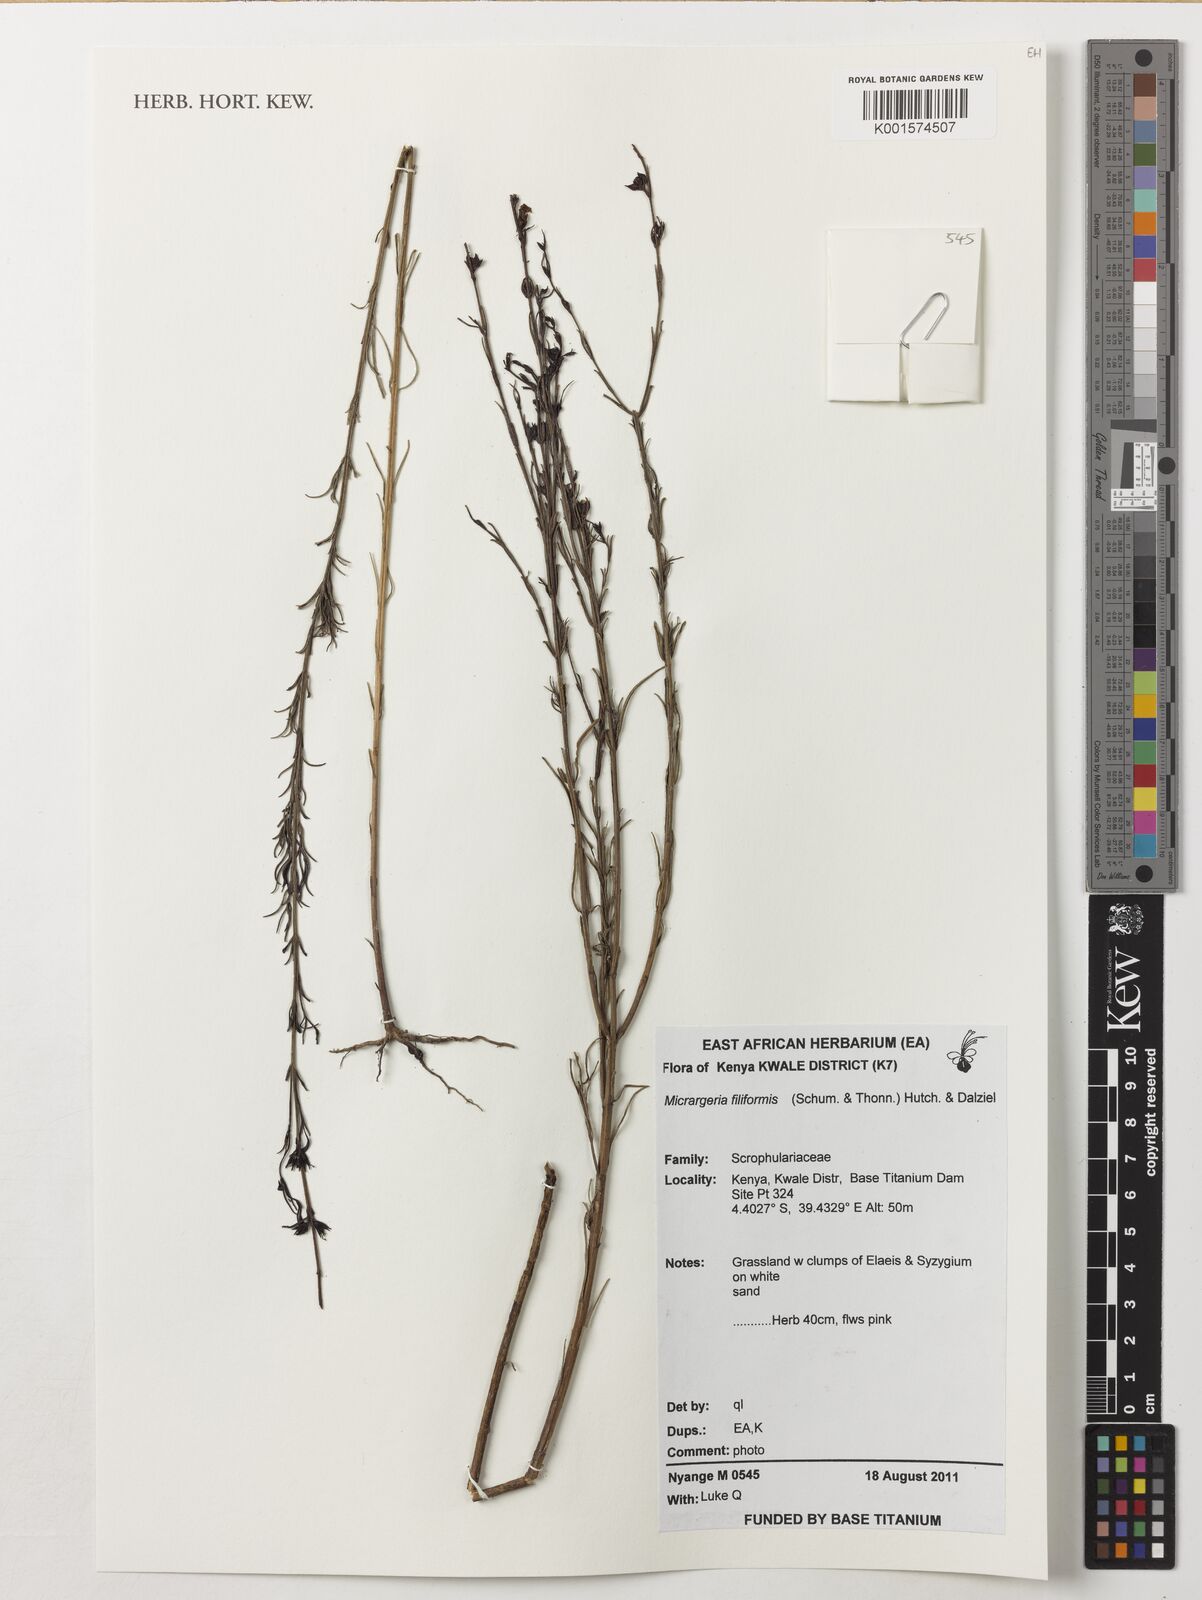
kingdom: Plantae
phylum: Tracheophyta
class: Magnoliopsida
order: Lamiales
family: Orobanchaceae
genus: Micrargeria
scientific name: Micrargeria filiformis
